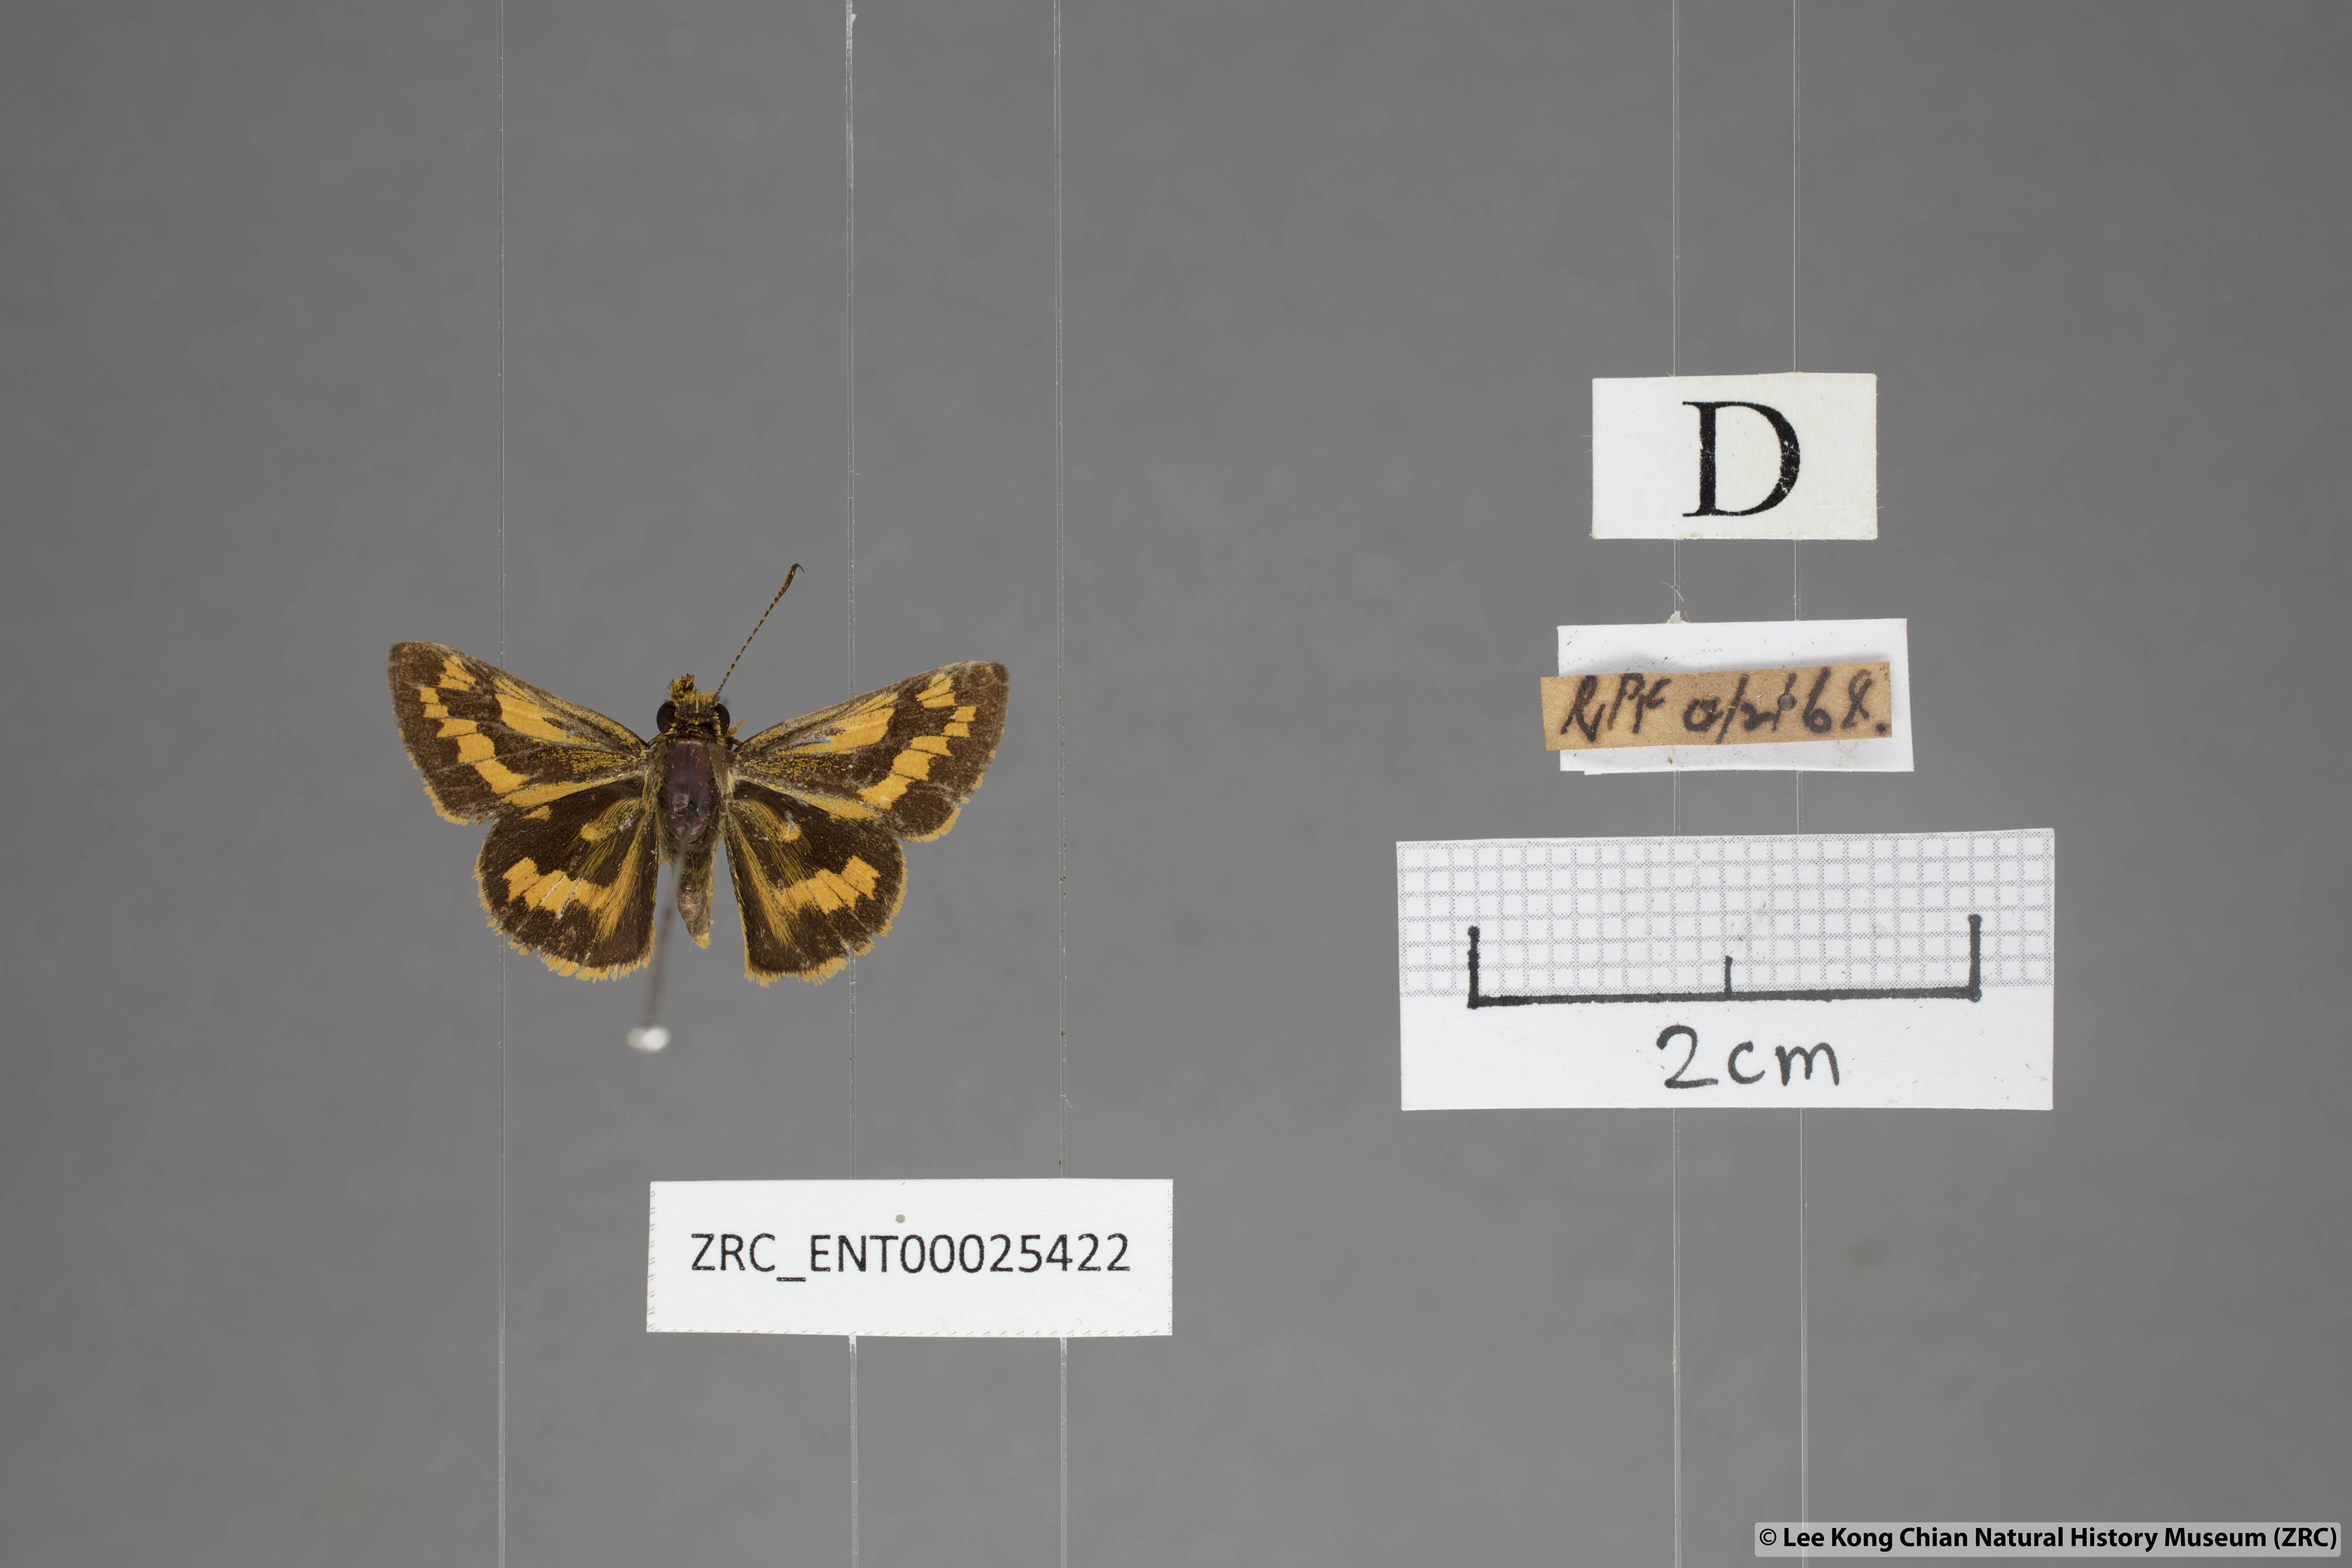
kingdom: Animalia
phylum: Arthropoda
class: Insecta
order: Lepidoptera
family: Hesperiidae
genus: Potanthus
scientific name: Potanthus omaha
